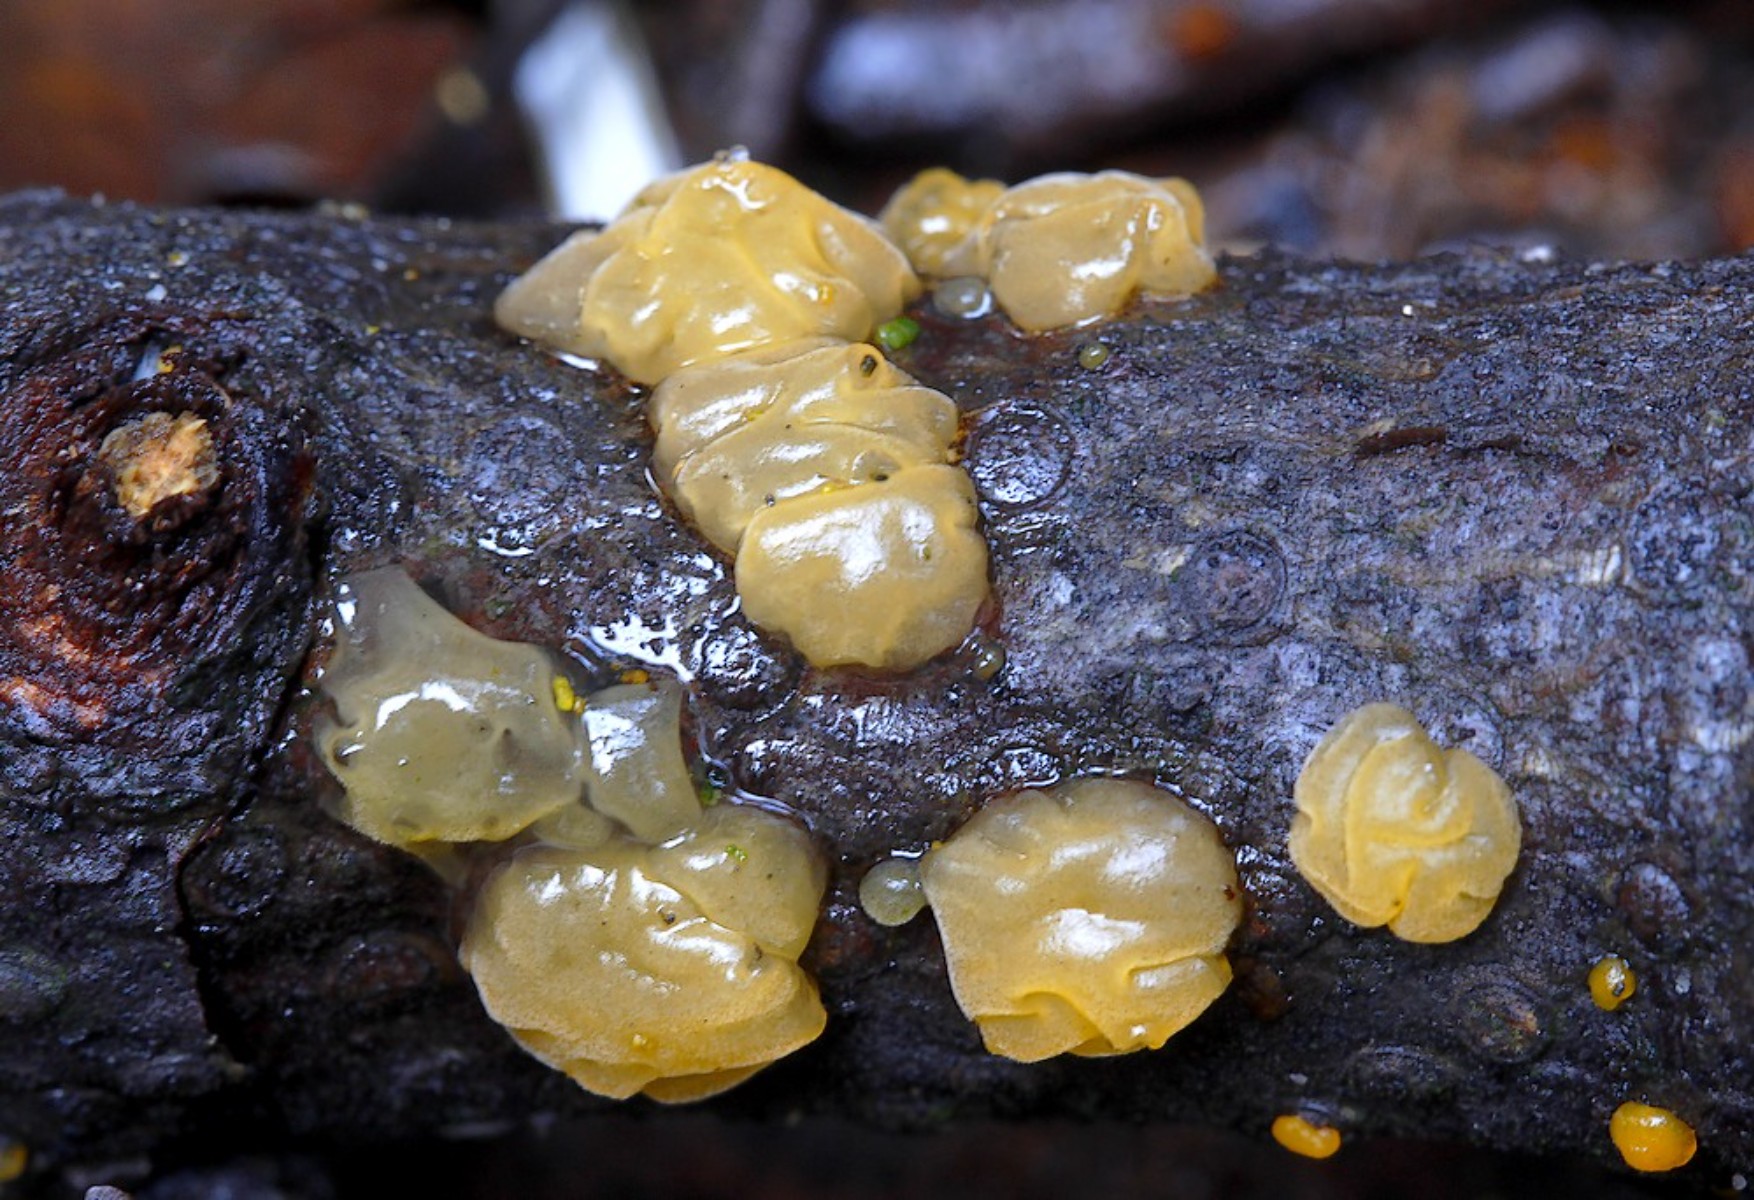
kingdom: Fungi
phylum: Basidiomycota
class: Dacrymycetes
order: Dacrymycetales
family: Dacrymycetaceae
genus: Dacrymyces
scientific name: Dacrymyces lacrymalis
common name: rynket tåresvamp
